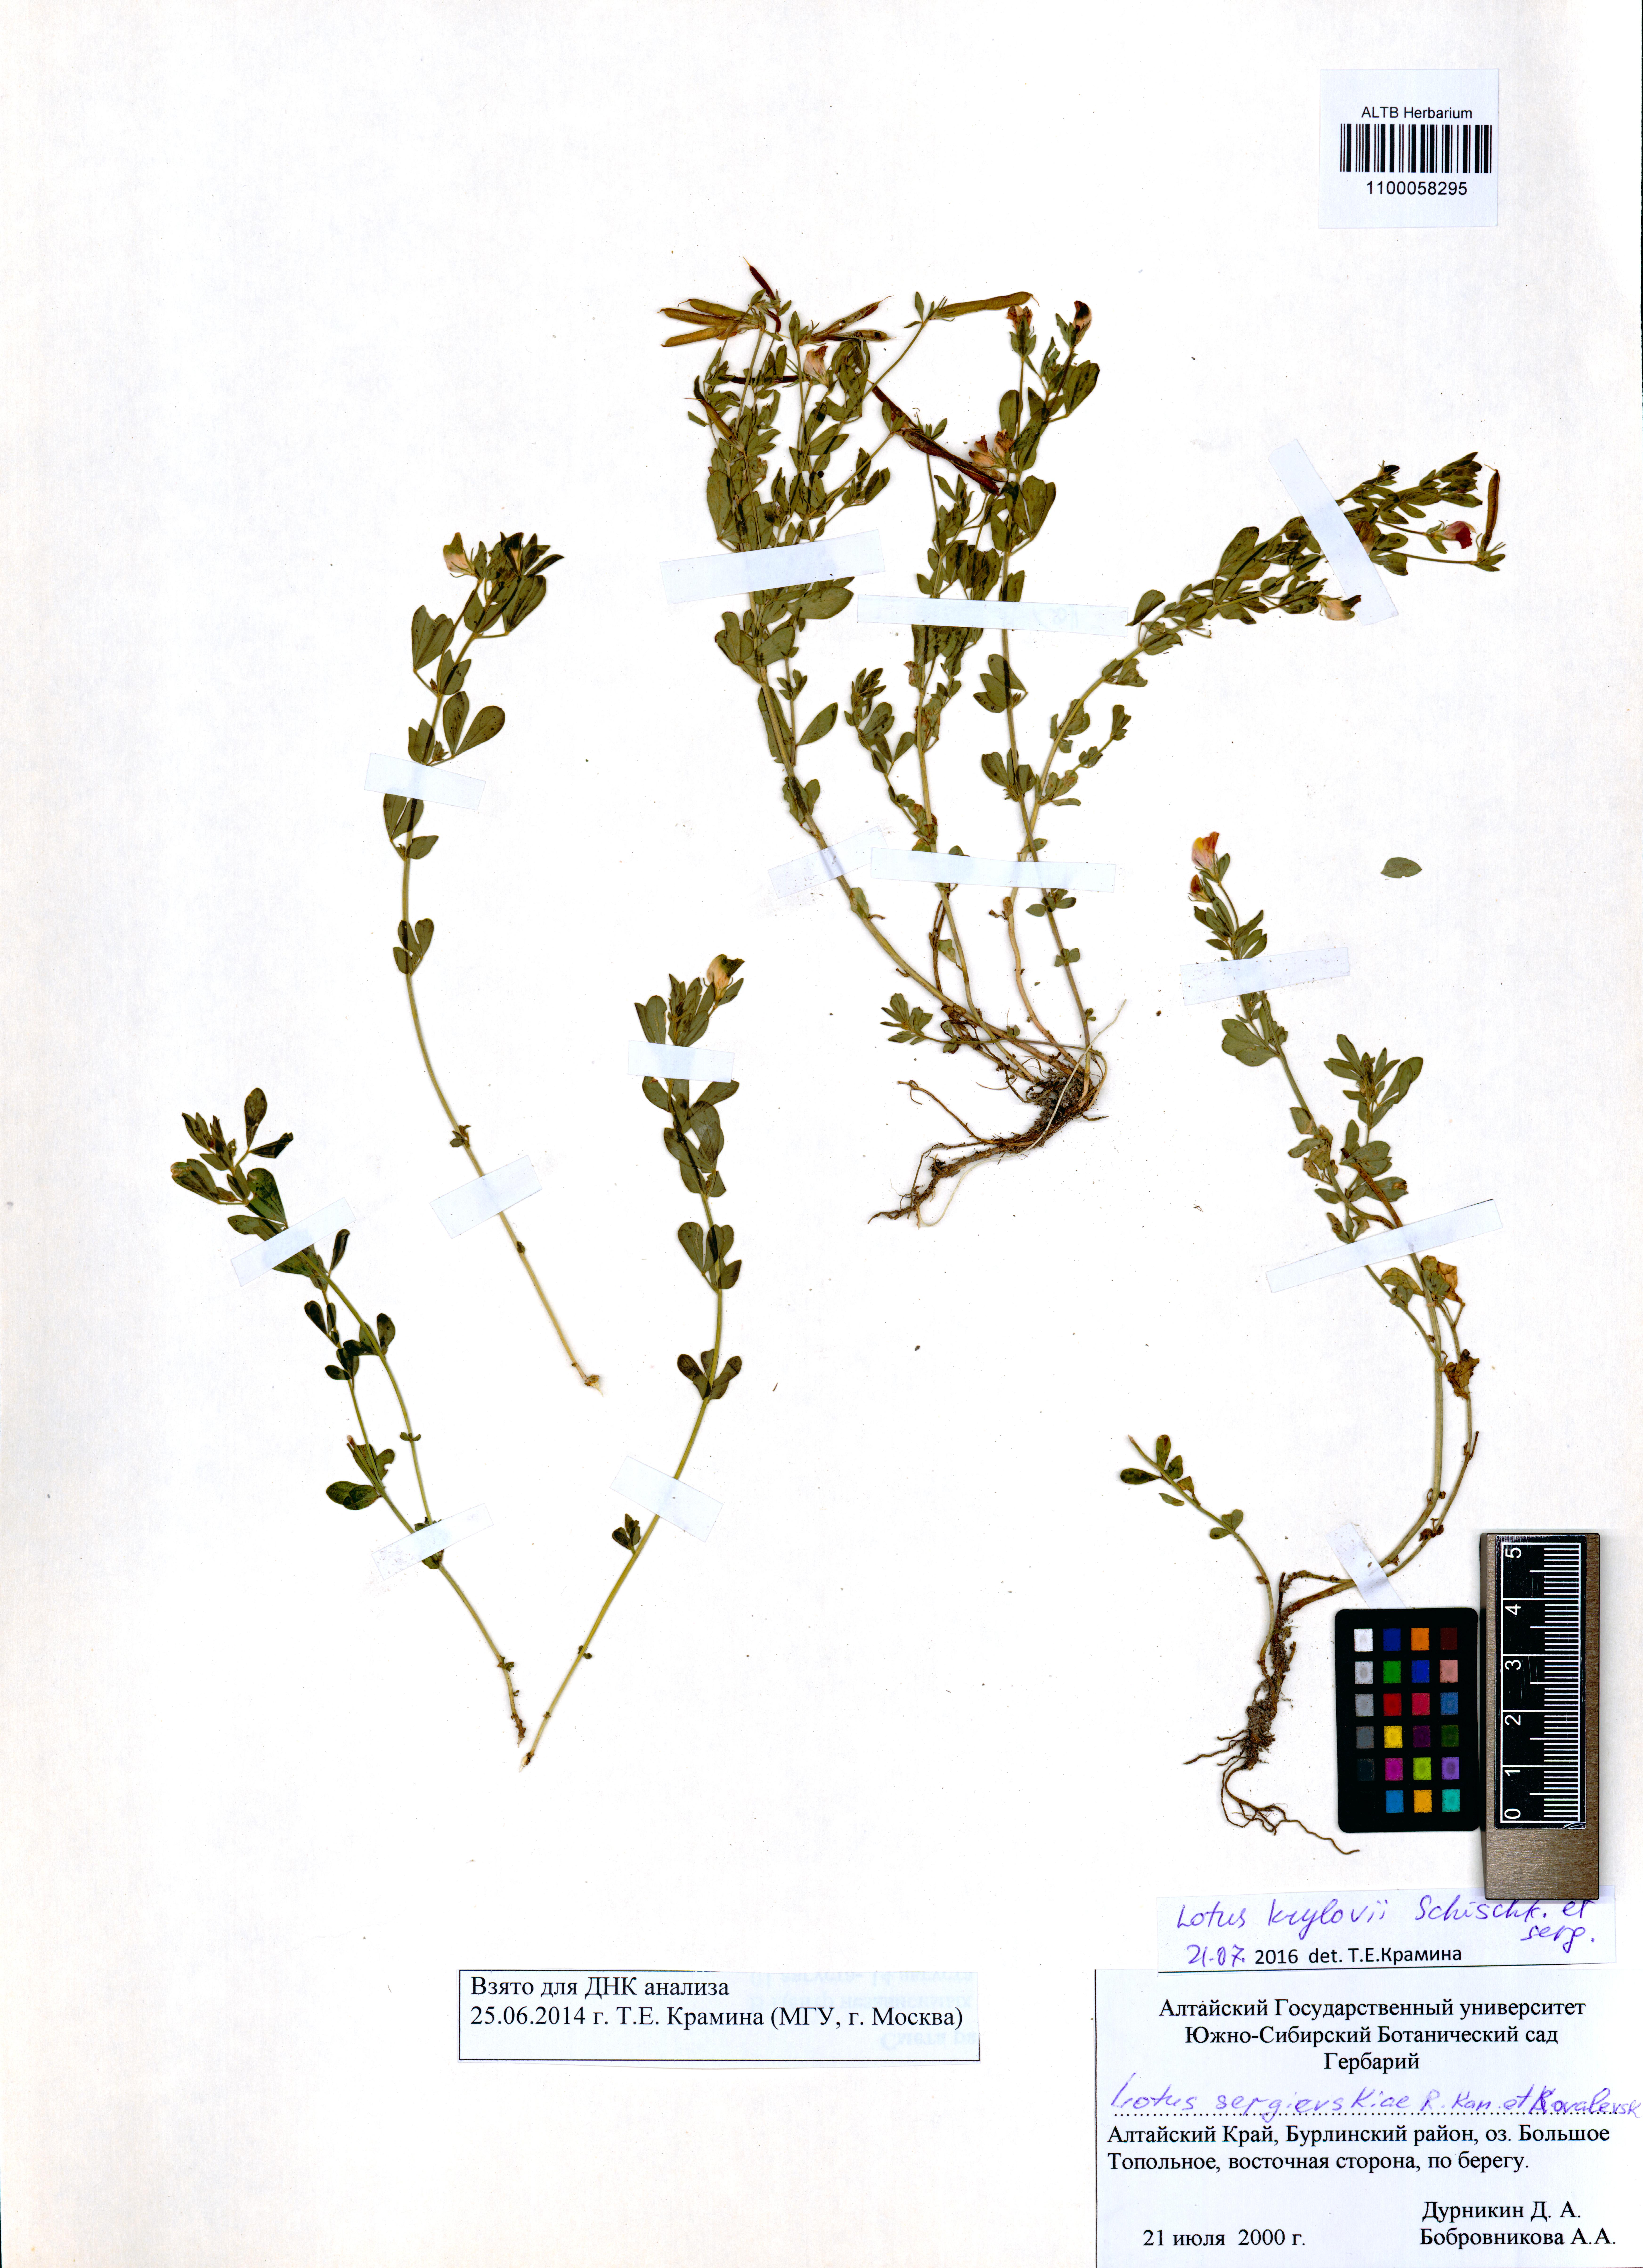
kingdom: Plantae
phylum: Tracheophyta
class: Magnoliopsida
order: Fabales
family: Fabaceae
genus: Lotus
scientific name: Lotus krylovii
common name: Krylov's bird's-foot trefoil
